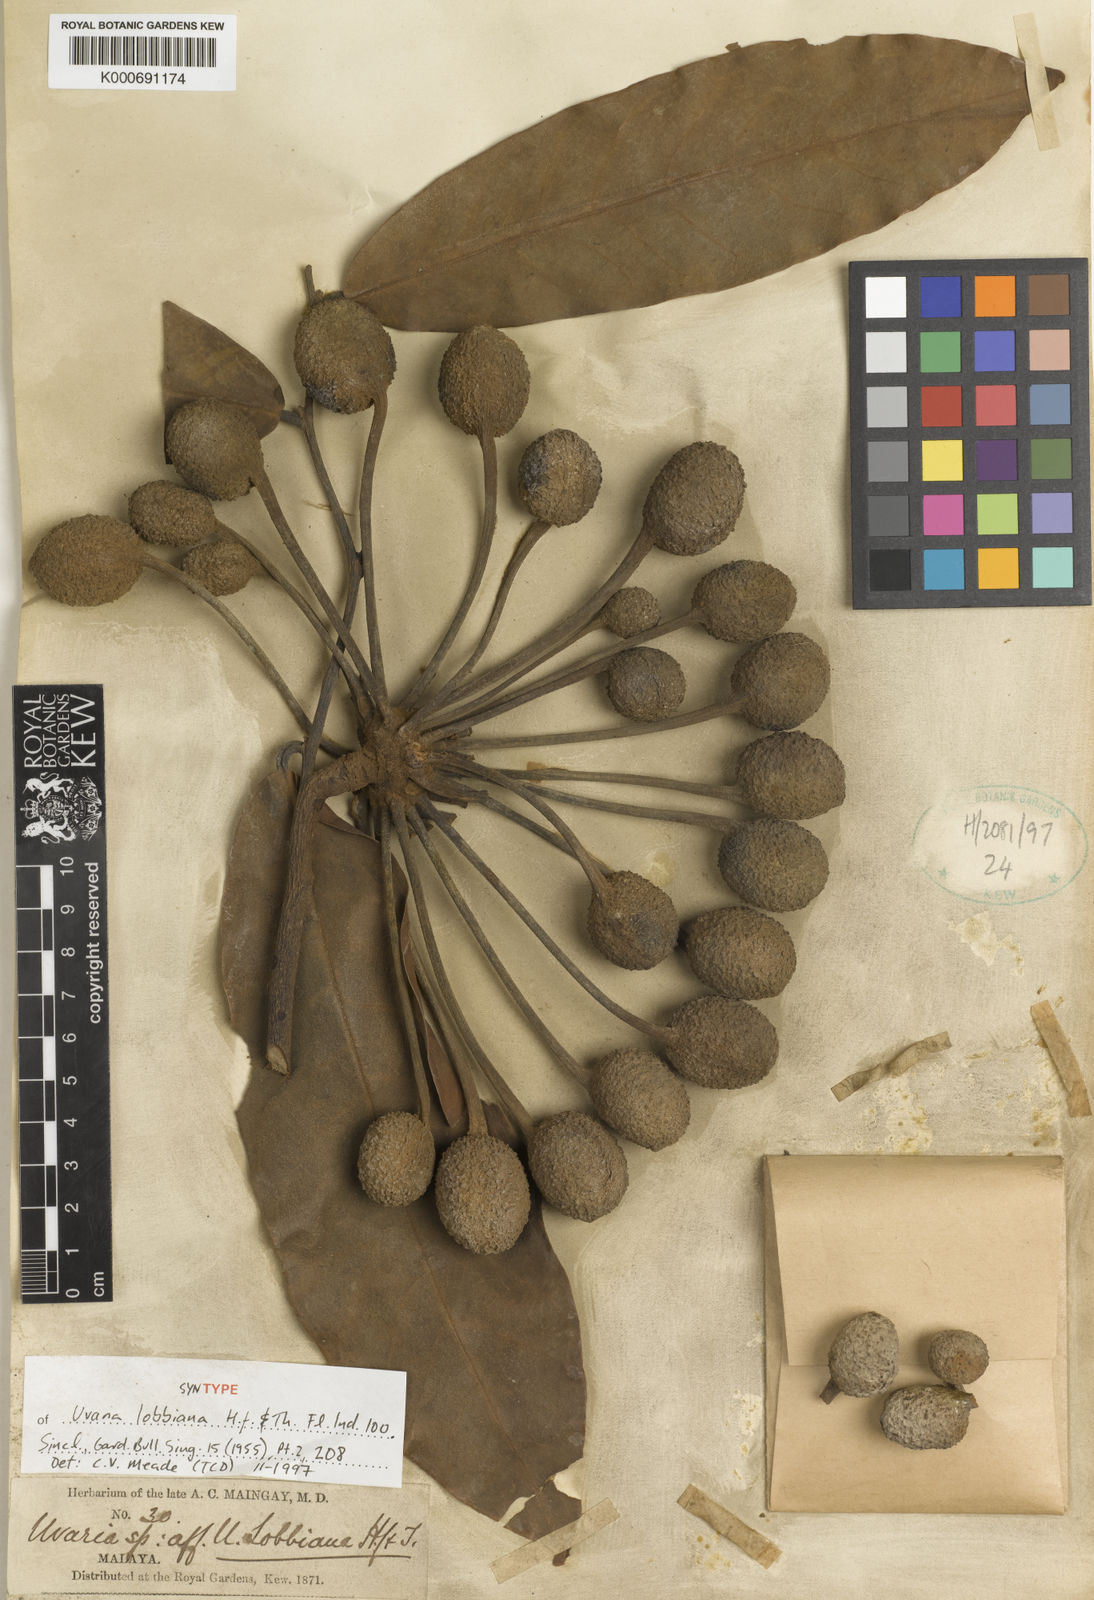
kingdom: Plantae
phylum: Tracheophyta
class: Magnoliopsida
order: Magnoliales
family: Annonaceae
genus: Uvaria
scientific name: Uvaria lobbiana
